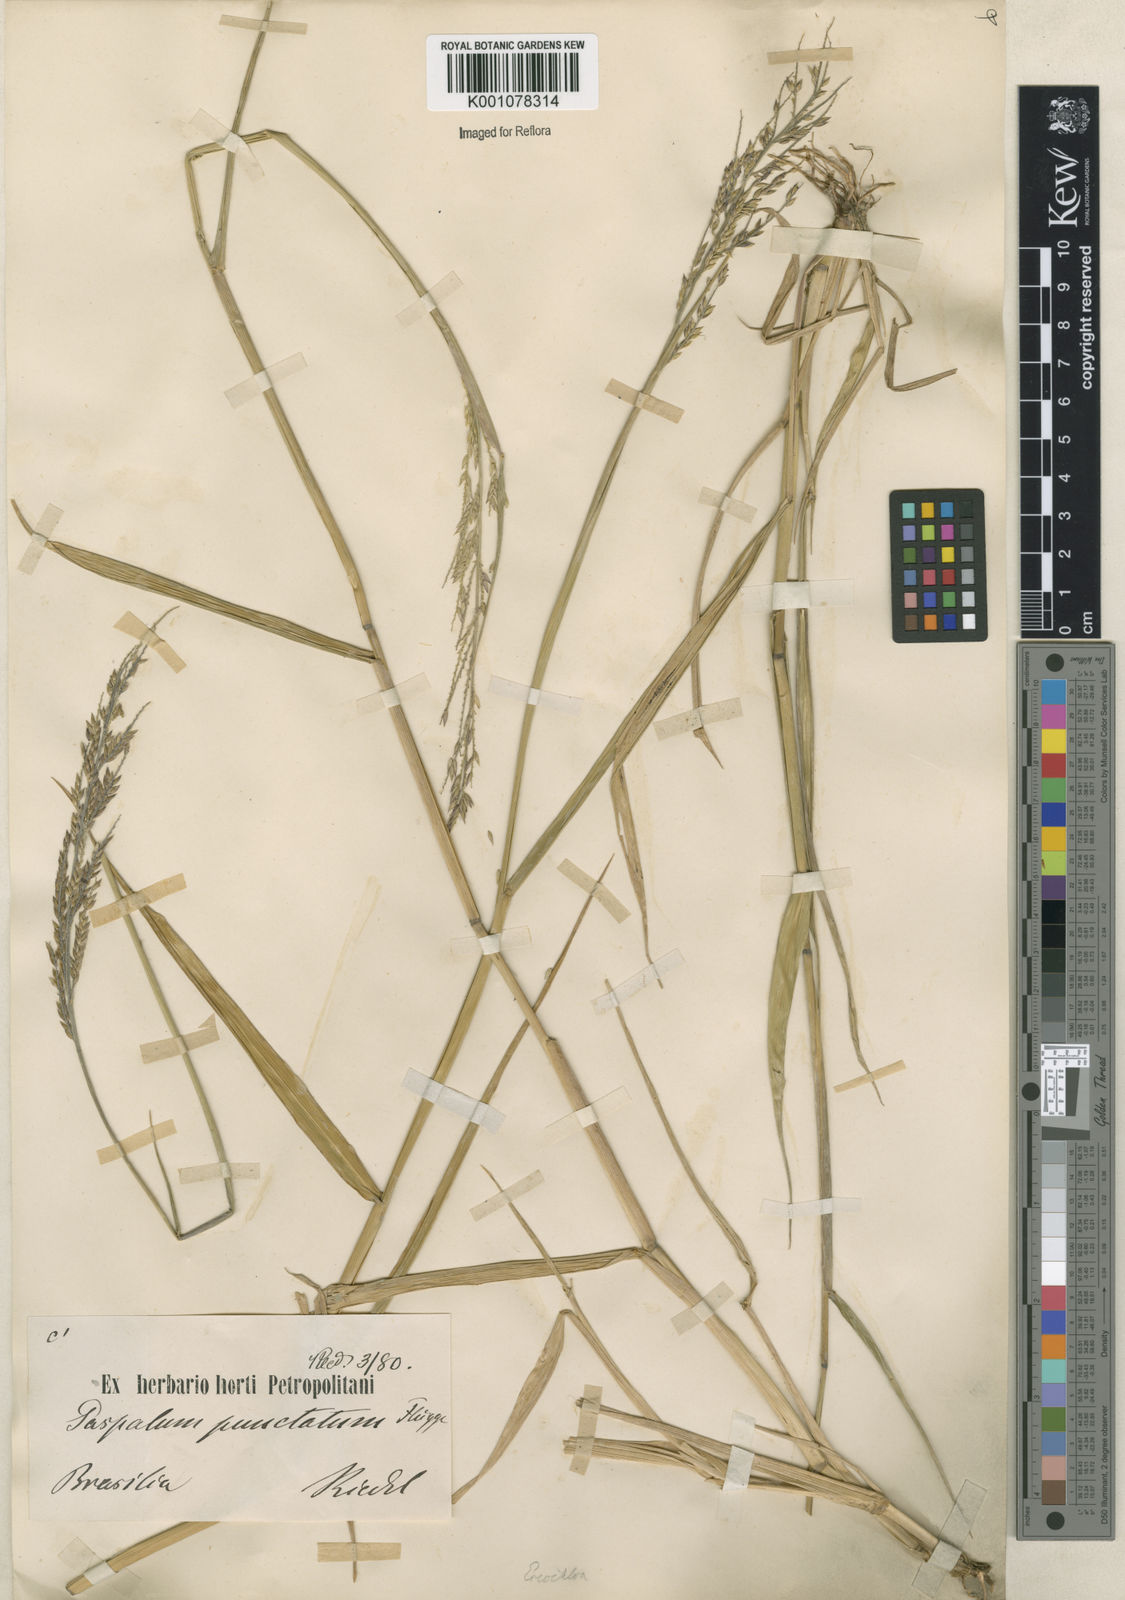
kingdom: Plantae
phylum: Tracheophyta
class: Liliopsida
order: Poales
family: Poaceae
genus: Eriochloa
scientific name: Eriochloa punctata
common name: Louisiana cupgrass
